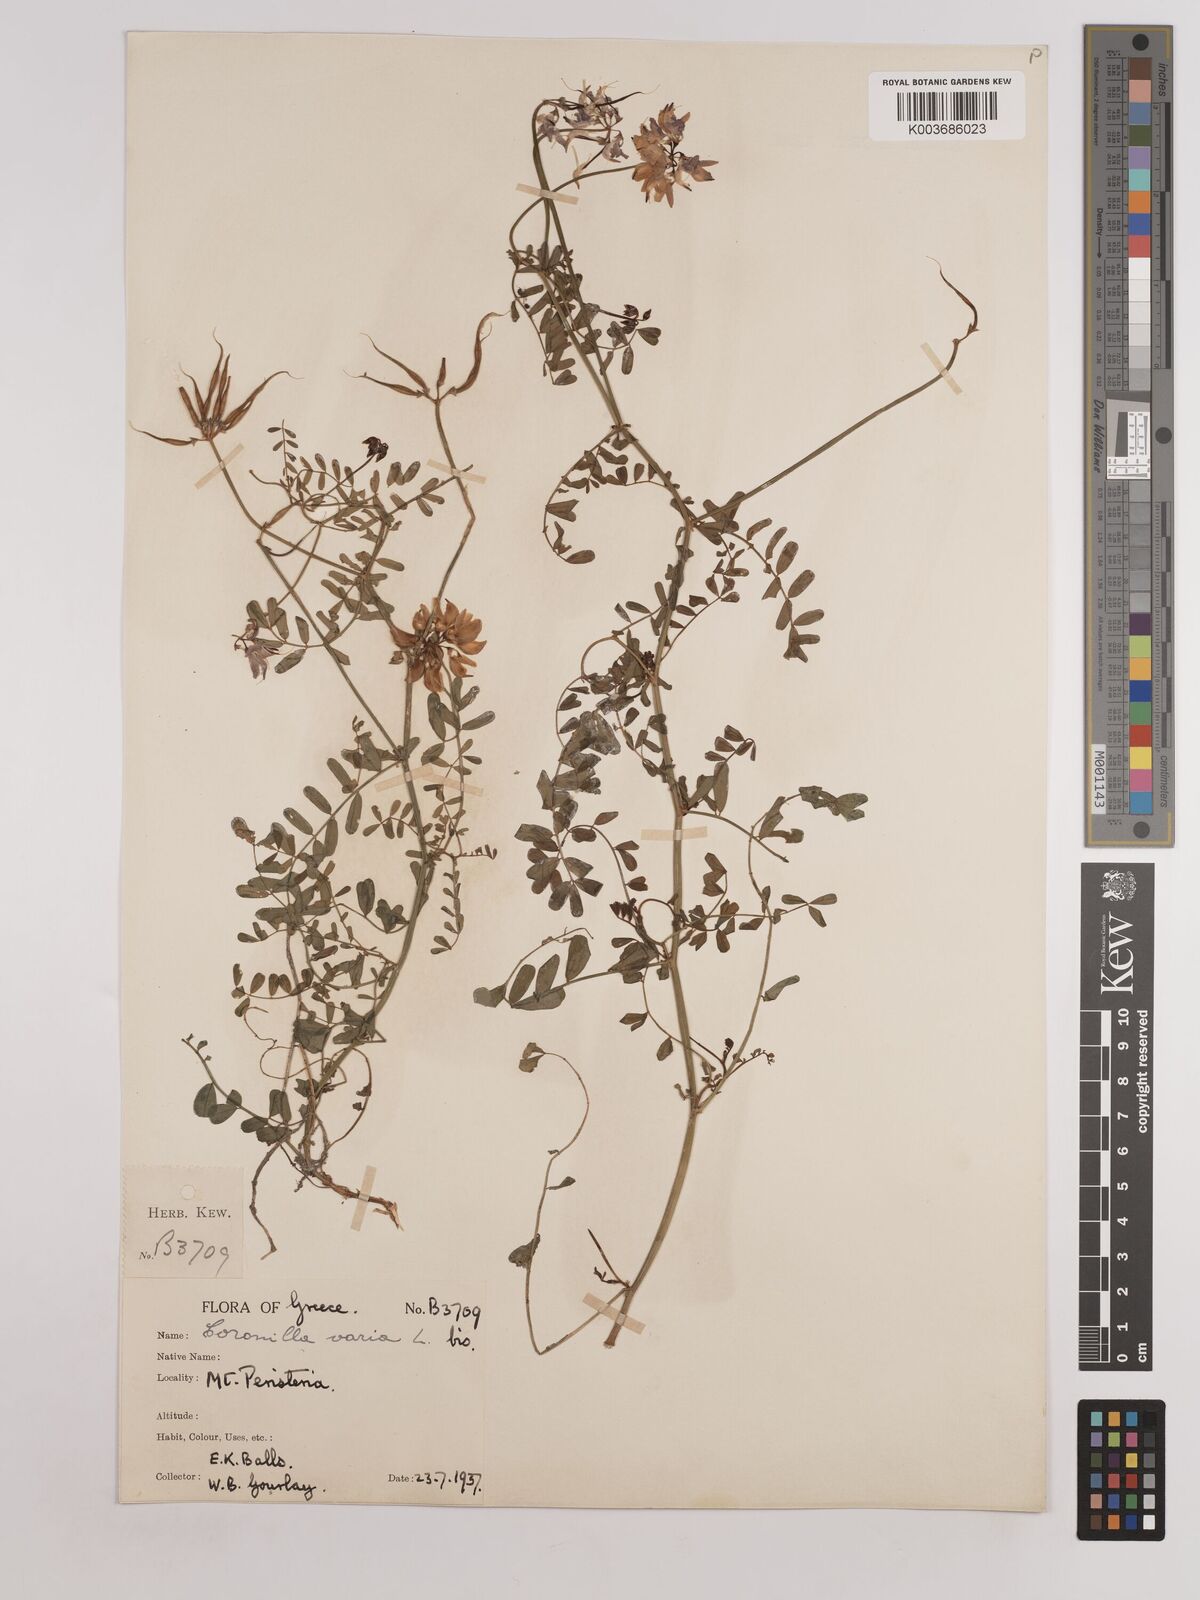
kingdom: Plantae
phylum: Tracheophyta
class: Magnoliopsida
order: Fabales
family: Fabaceae
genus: Coronilla
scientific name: Coronilla varia
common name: Crownvetch
